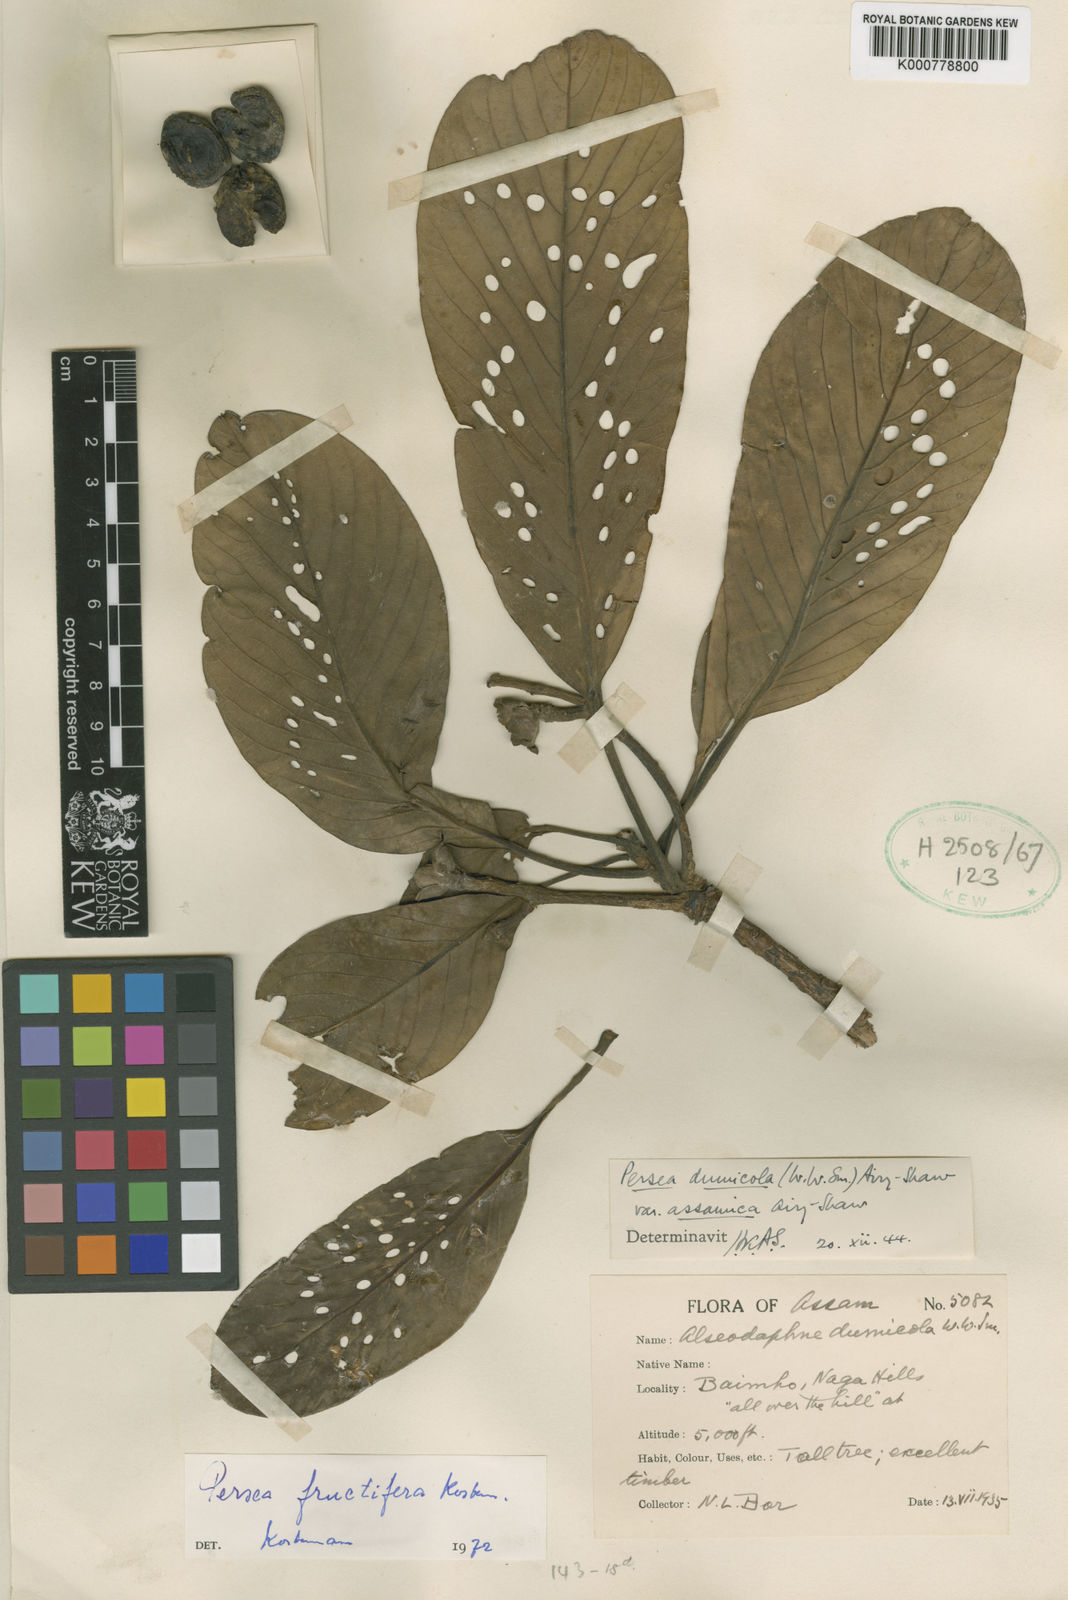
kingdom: Plantae
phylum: Tracheophyta
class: Magnoliopsida
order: Laurales
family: Lauraceae
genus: Persea
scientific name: Persea
